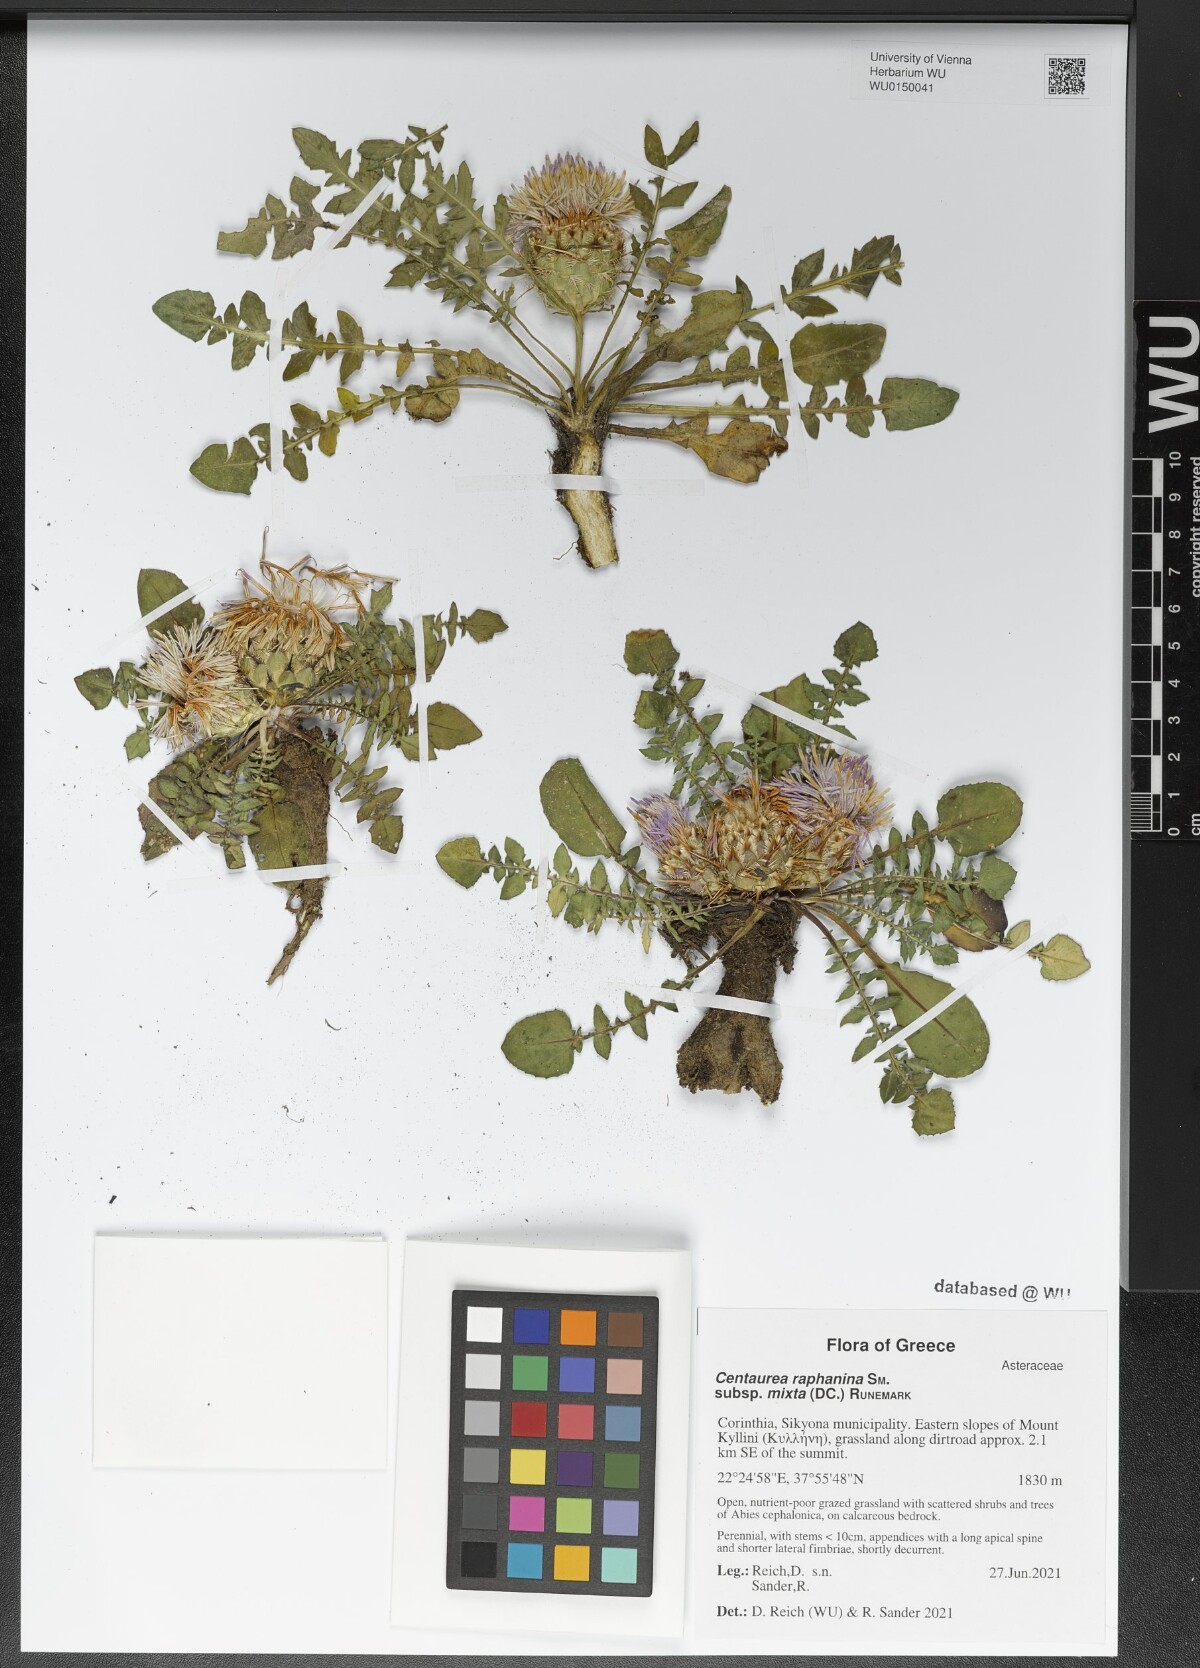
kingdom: Plantae
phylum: Tracheophyta
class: Magnoliopsida
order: Asterales
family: Asteraceae
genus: Centaurea
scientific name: Centaurea raphanina
